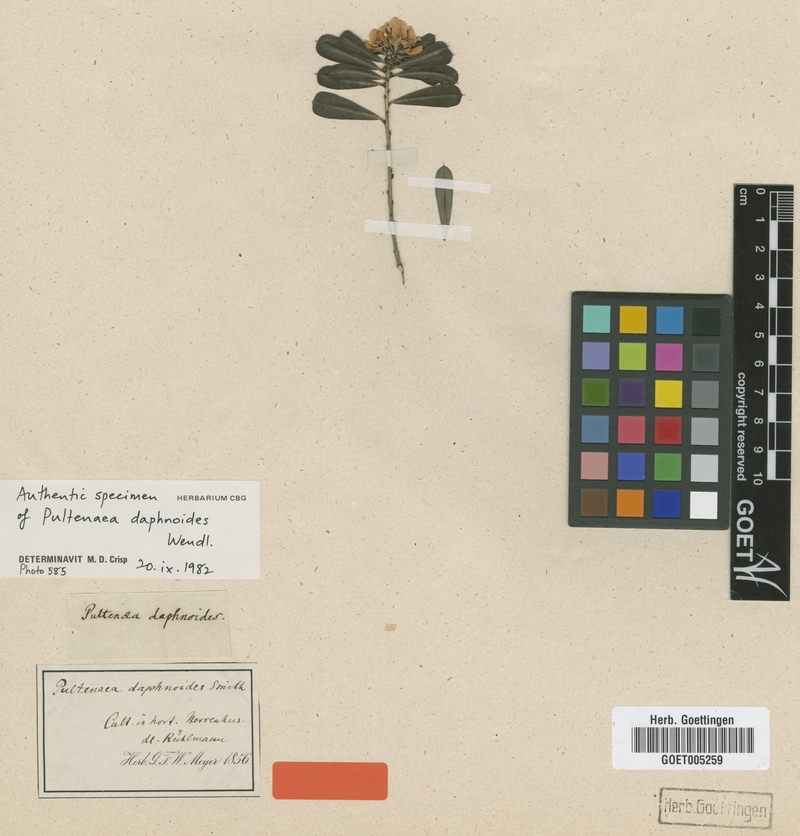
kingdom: Plantae
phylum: Tracheophyta
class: Magnoliopsida
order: Fabales
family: Fabaceae
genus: Pultenaea
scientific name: Pultenaea daphnoides
